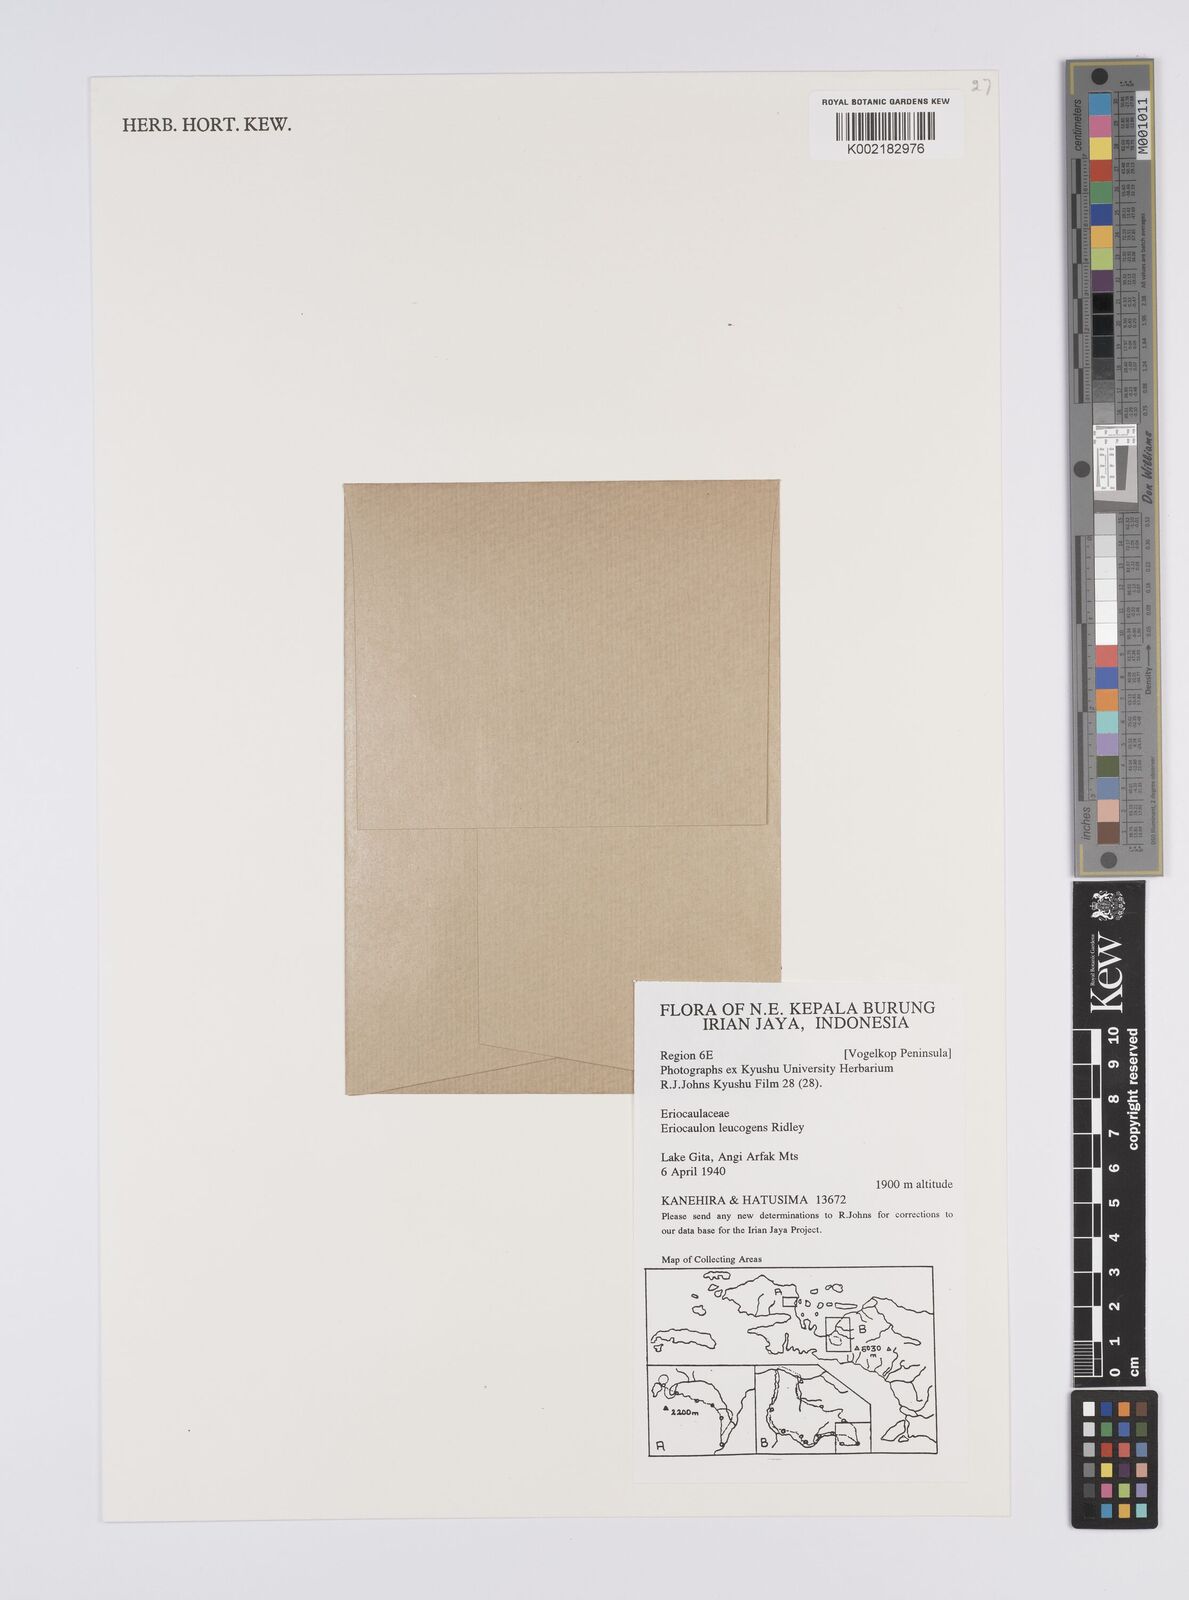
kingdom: Plantae
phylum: Tracheophyta
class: Liliopsida
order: Poales
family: Eriocaulaceae
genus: Eriocaulon
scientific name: Eriocaulon leucogenes
